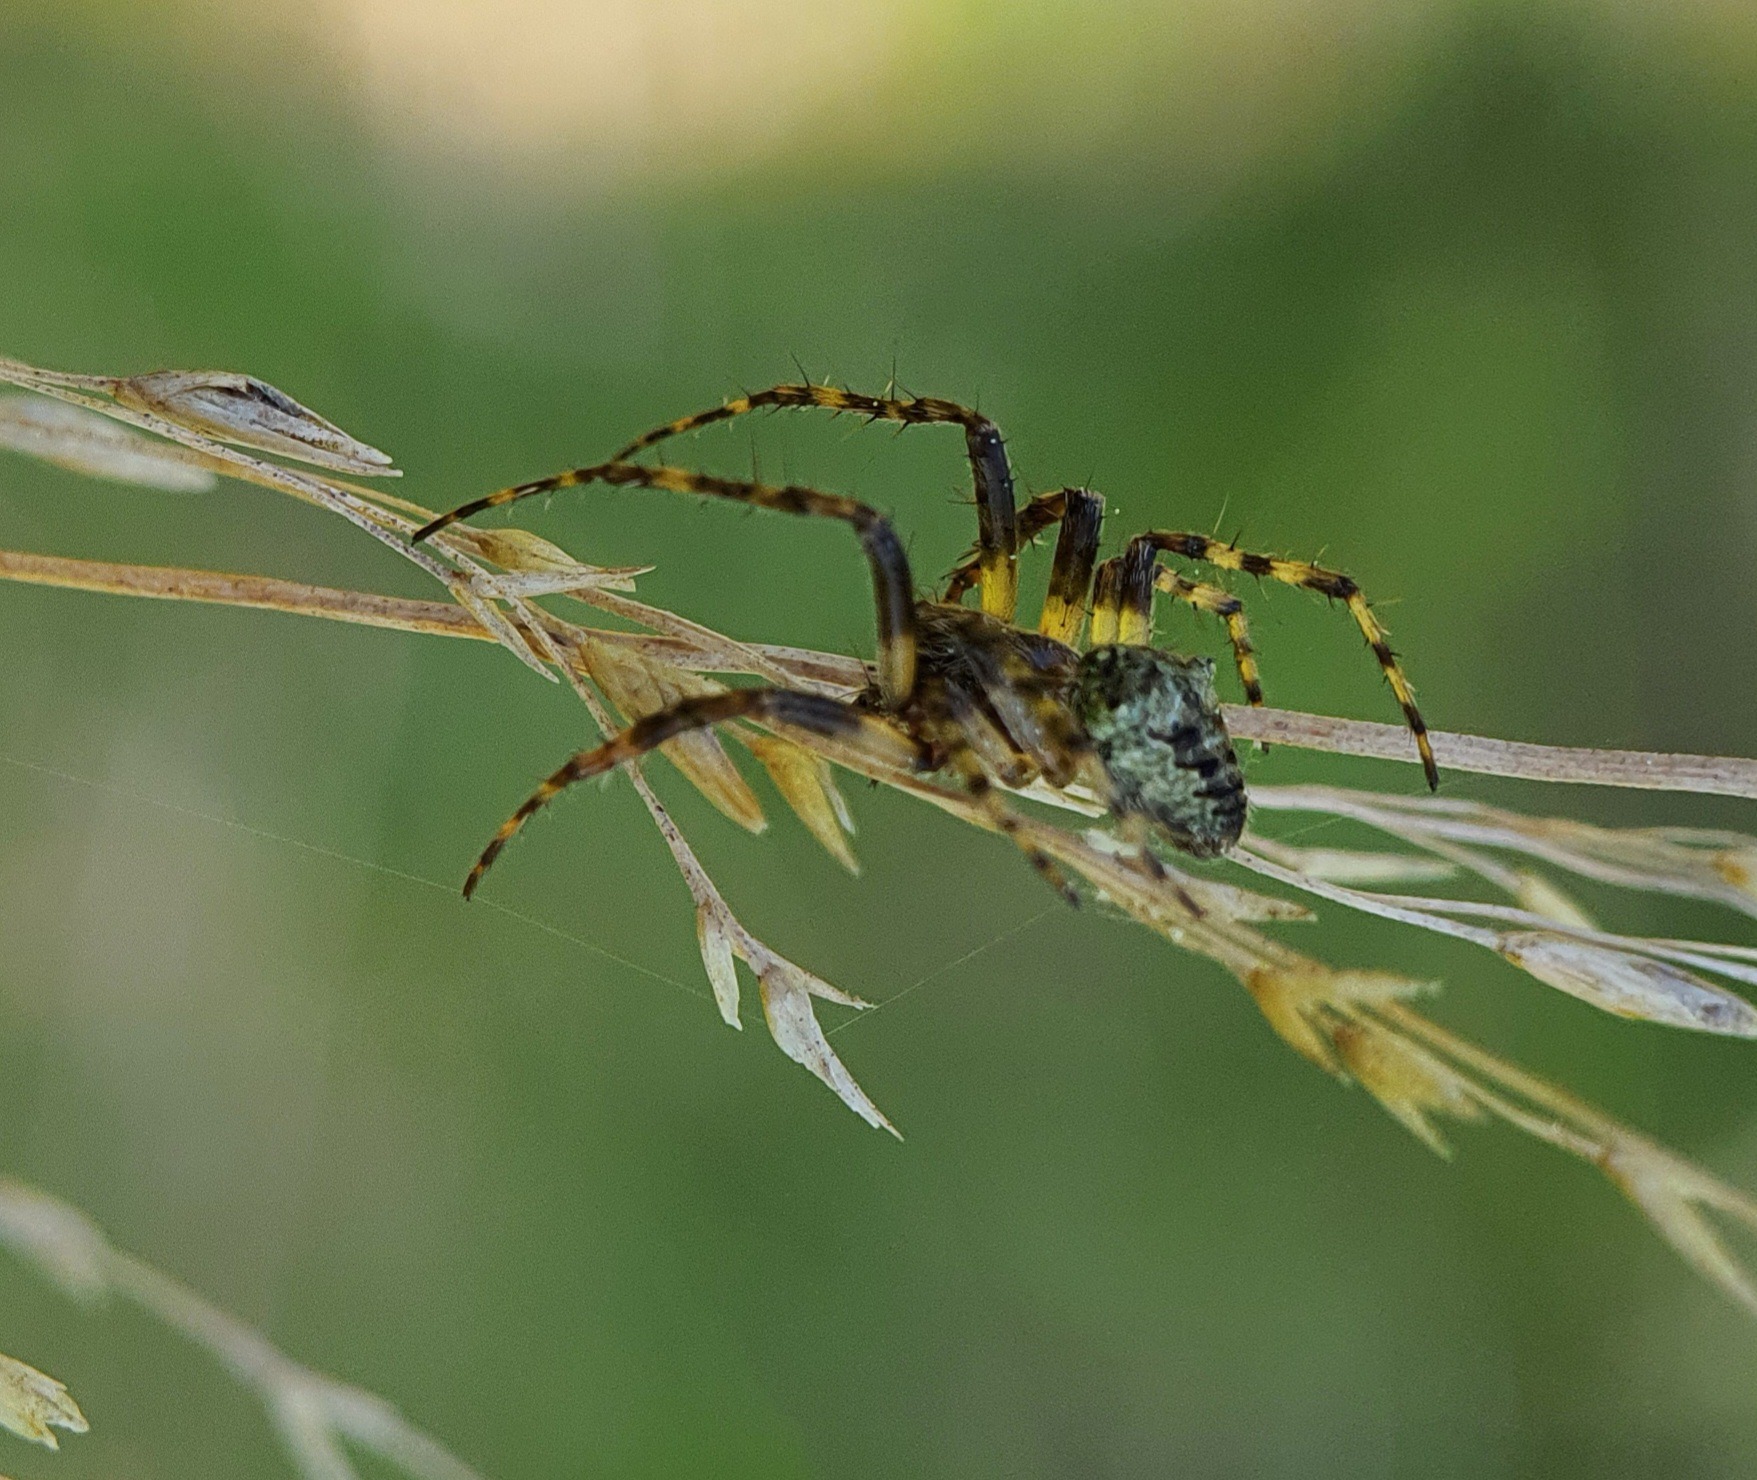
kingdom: Animalia
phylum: Arthropoda
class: Arachnida
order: Araneae
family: Araneidae
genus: Gibbaranea
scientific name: Gibbaranea gibbosa
